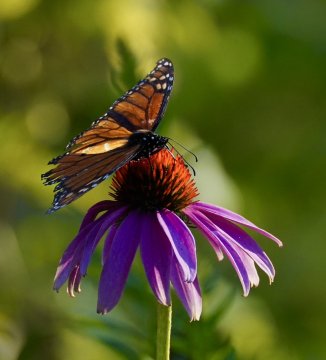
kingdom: Animalia
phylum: Arthropoda
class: Insecta
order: Lepidoptera
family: Nymphalidae
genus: Danaus
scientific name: Danaus plexippus
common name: Monarch
